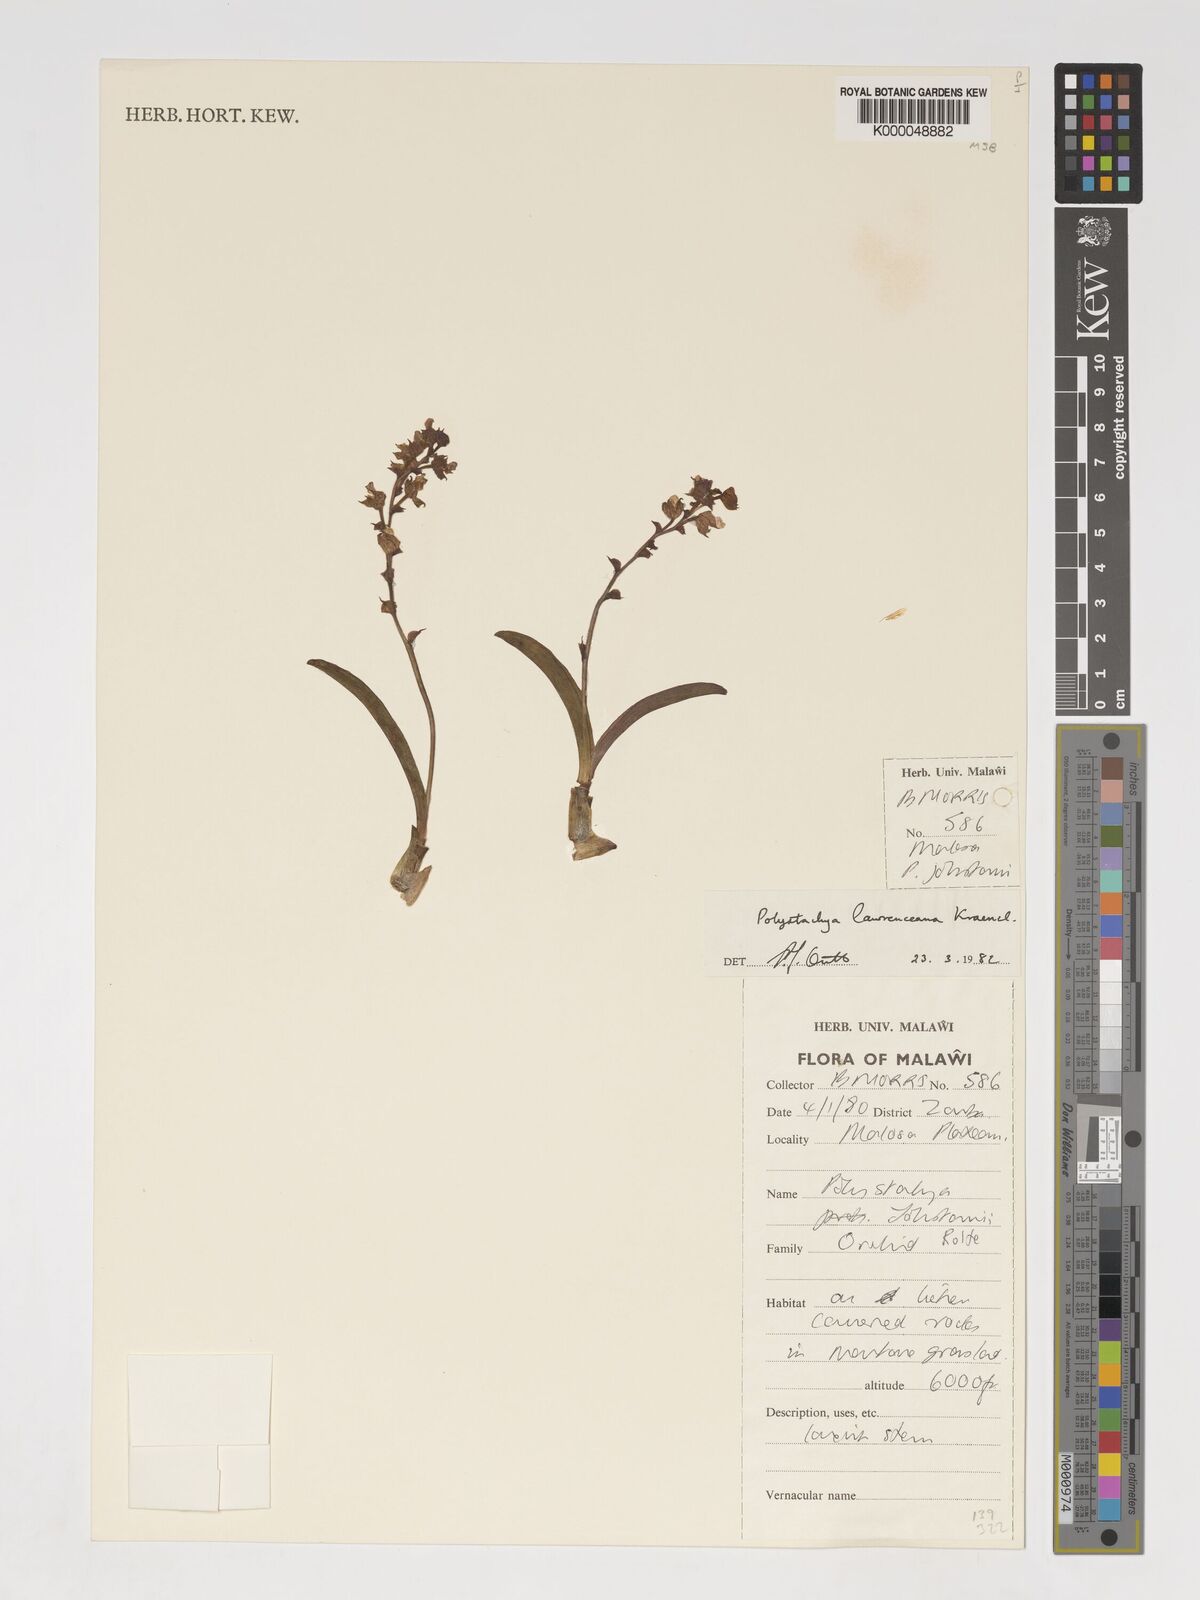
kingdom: Plantae
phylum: Tracheophyta
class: Liliopsida
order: Asparagales
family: Orchidaceae
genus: Polystachya
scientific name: Polystachya lawrenceana
